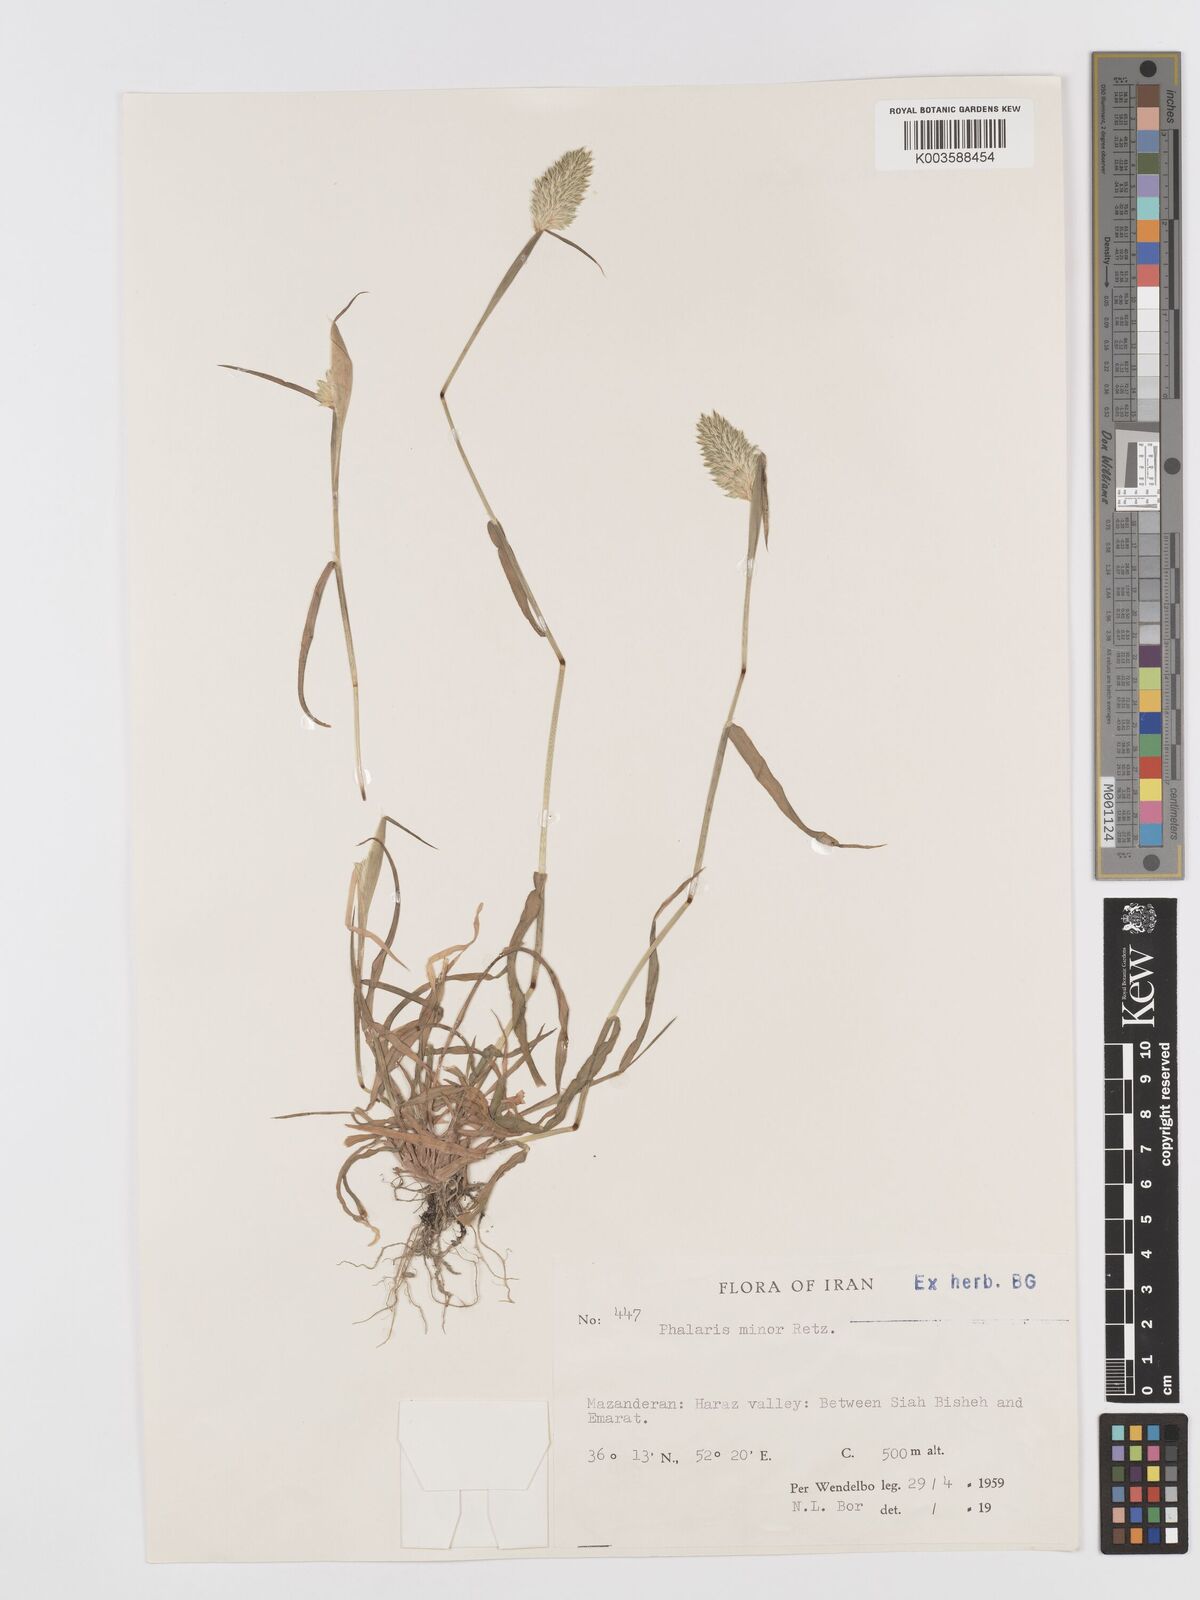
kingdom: Plantae
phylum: Tracheophyta
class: Liliopsida
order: Poales
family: Poaceae
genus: Phalaris
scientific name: Phalaris minor
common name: Littleseed canarygrass
